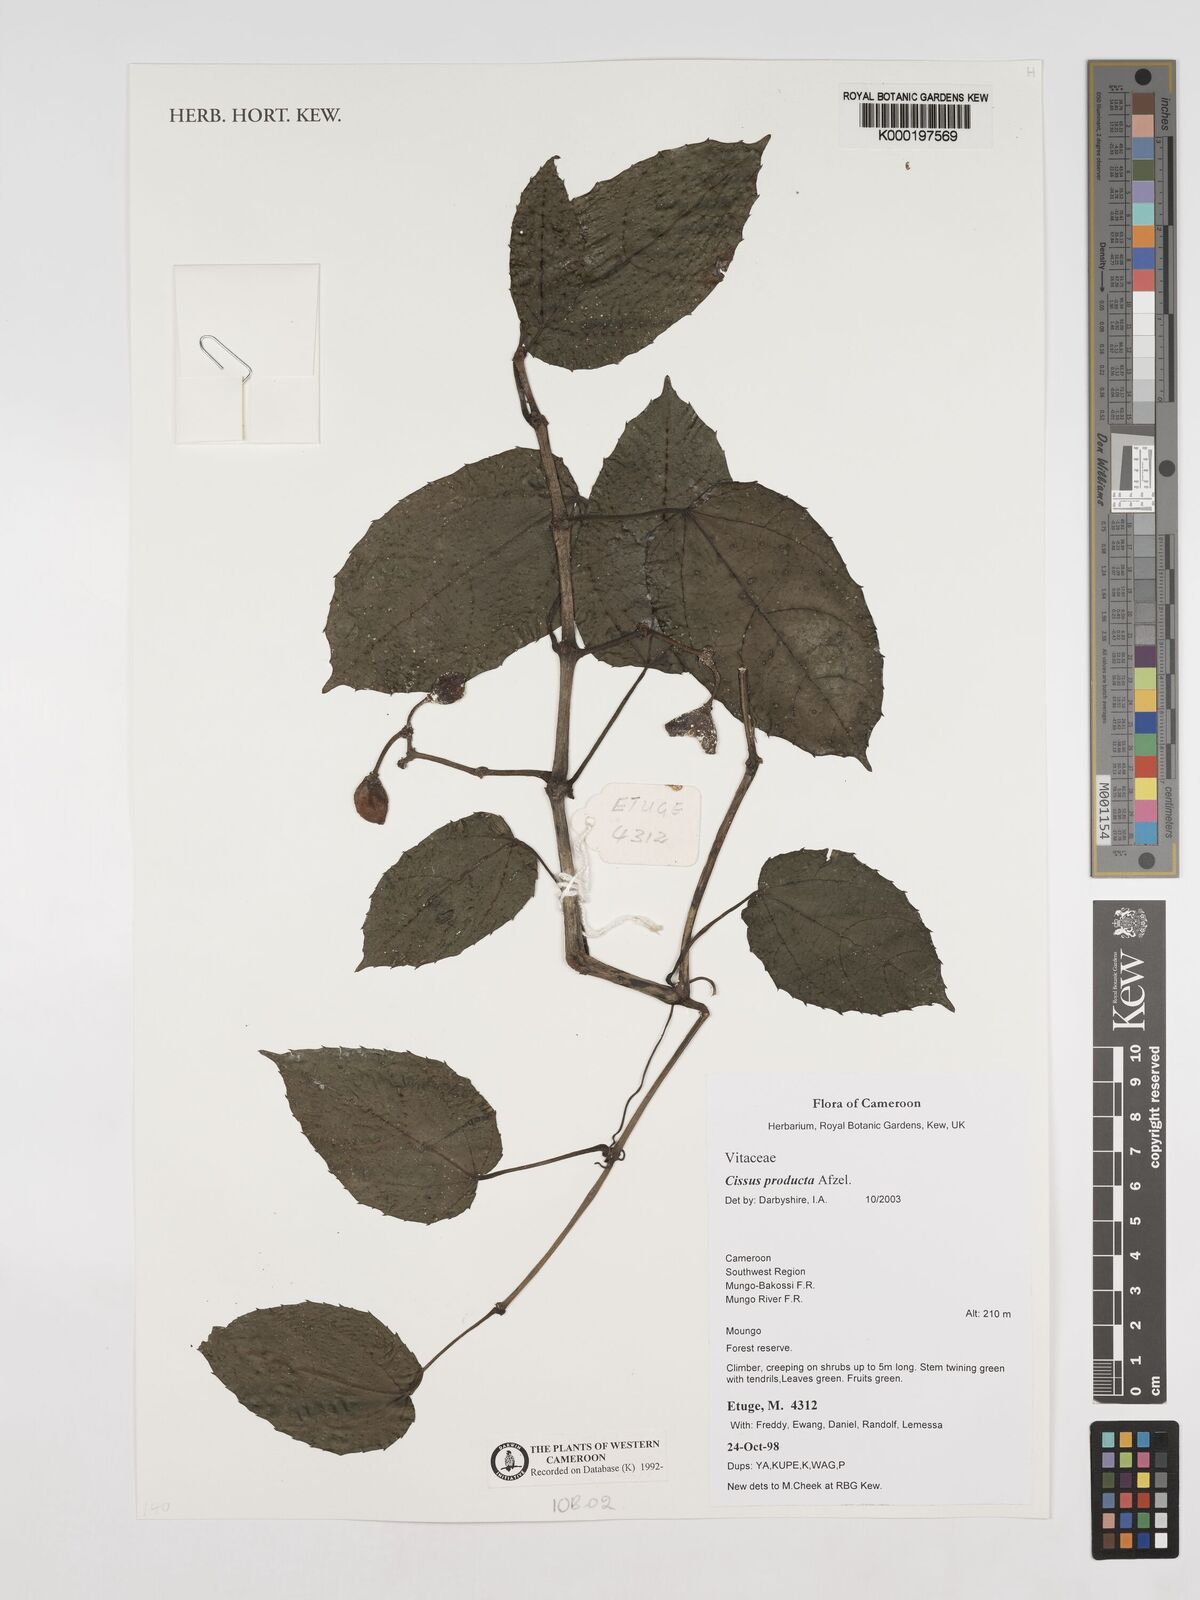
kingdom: Plantae
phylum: Tracheophyta
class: Magnoliopsida
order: Vitales
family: Vitaceae
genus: Cissus
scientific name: Cissus producta
